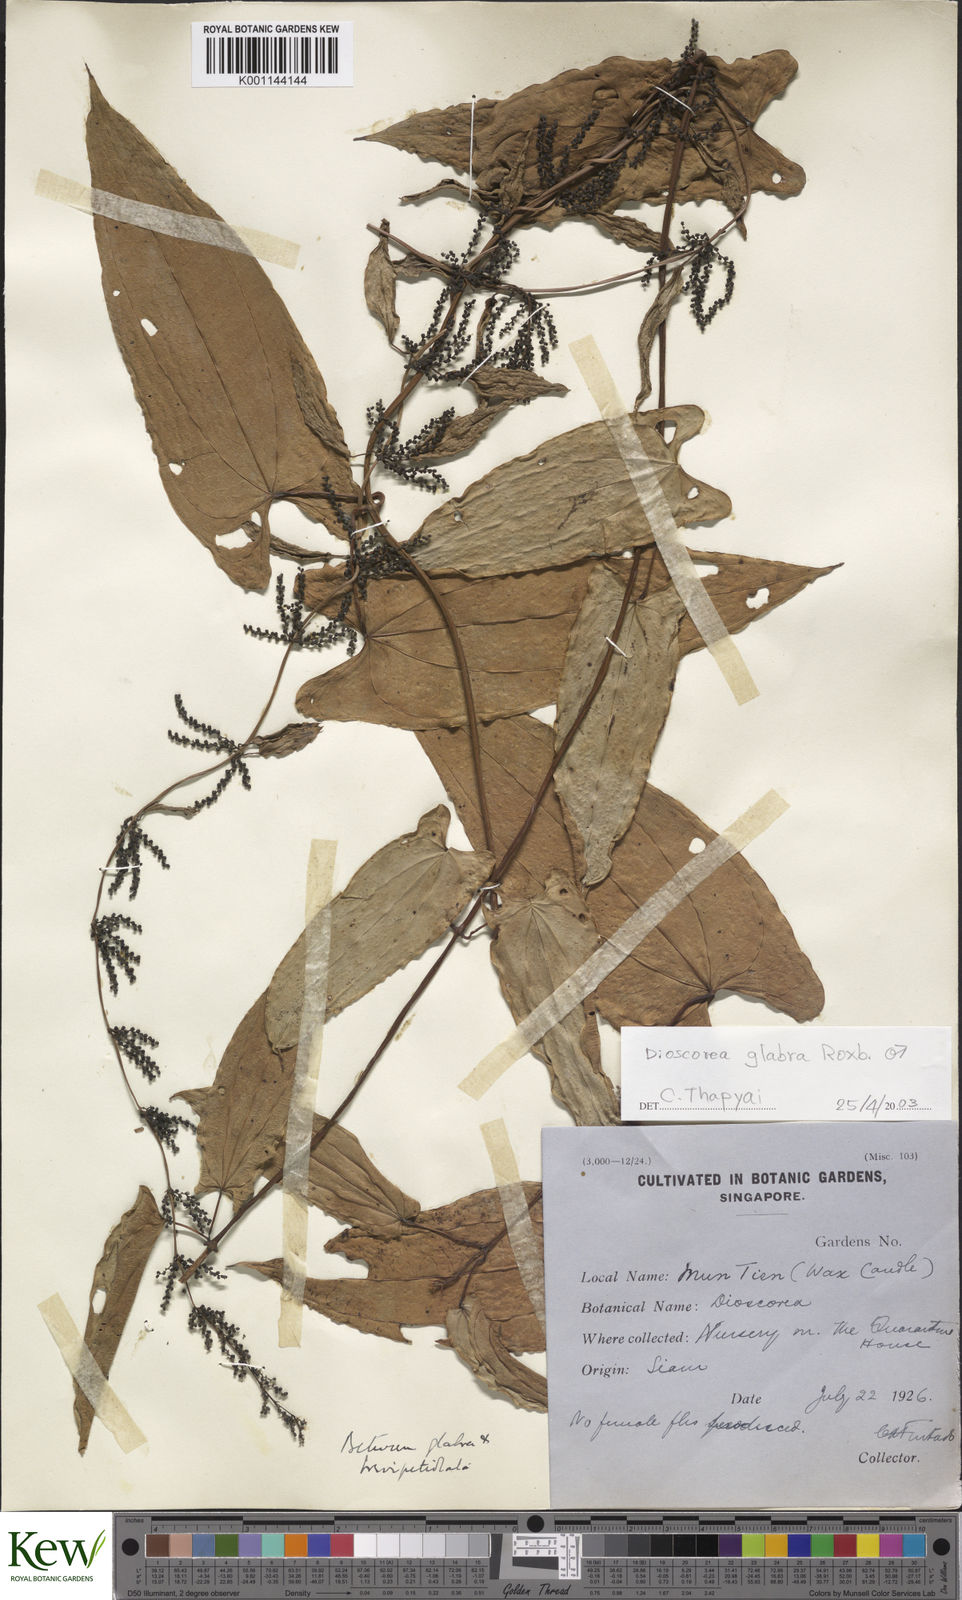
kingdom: Plantae
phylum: Tracheophyta
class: Liliopsida
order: Dioscoreales
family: Dioscoreaceae
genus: Dioscorea
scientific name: Dioscorea glabra
